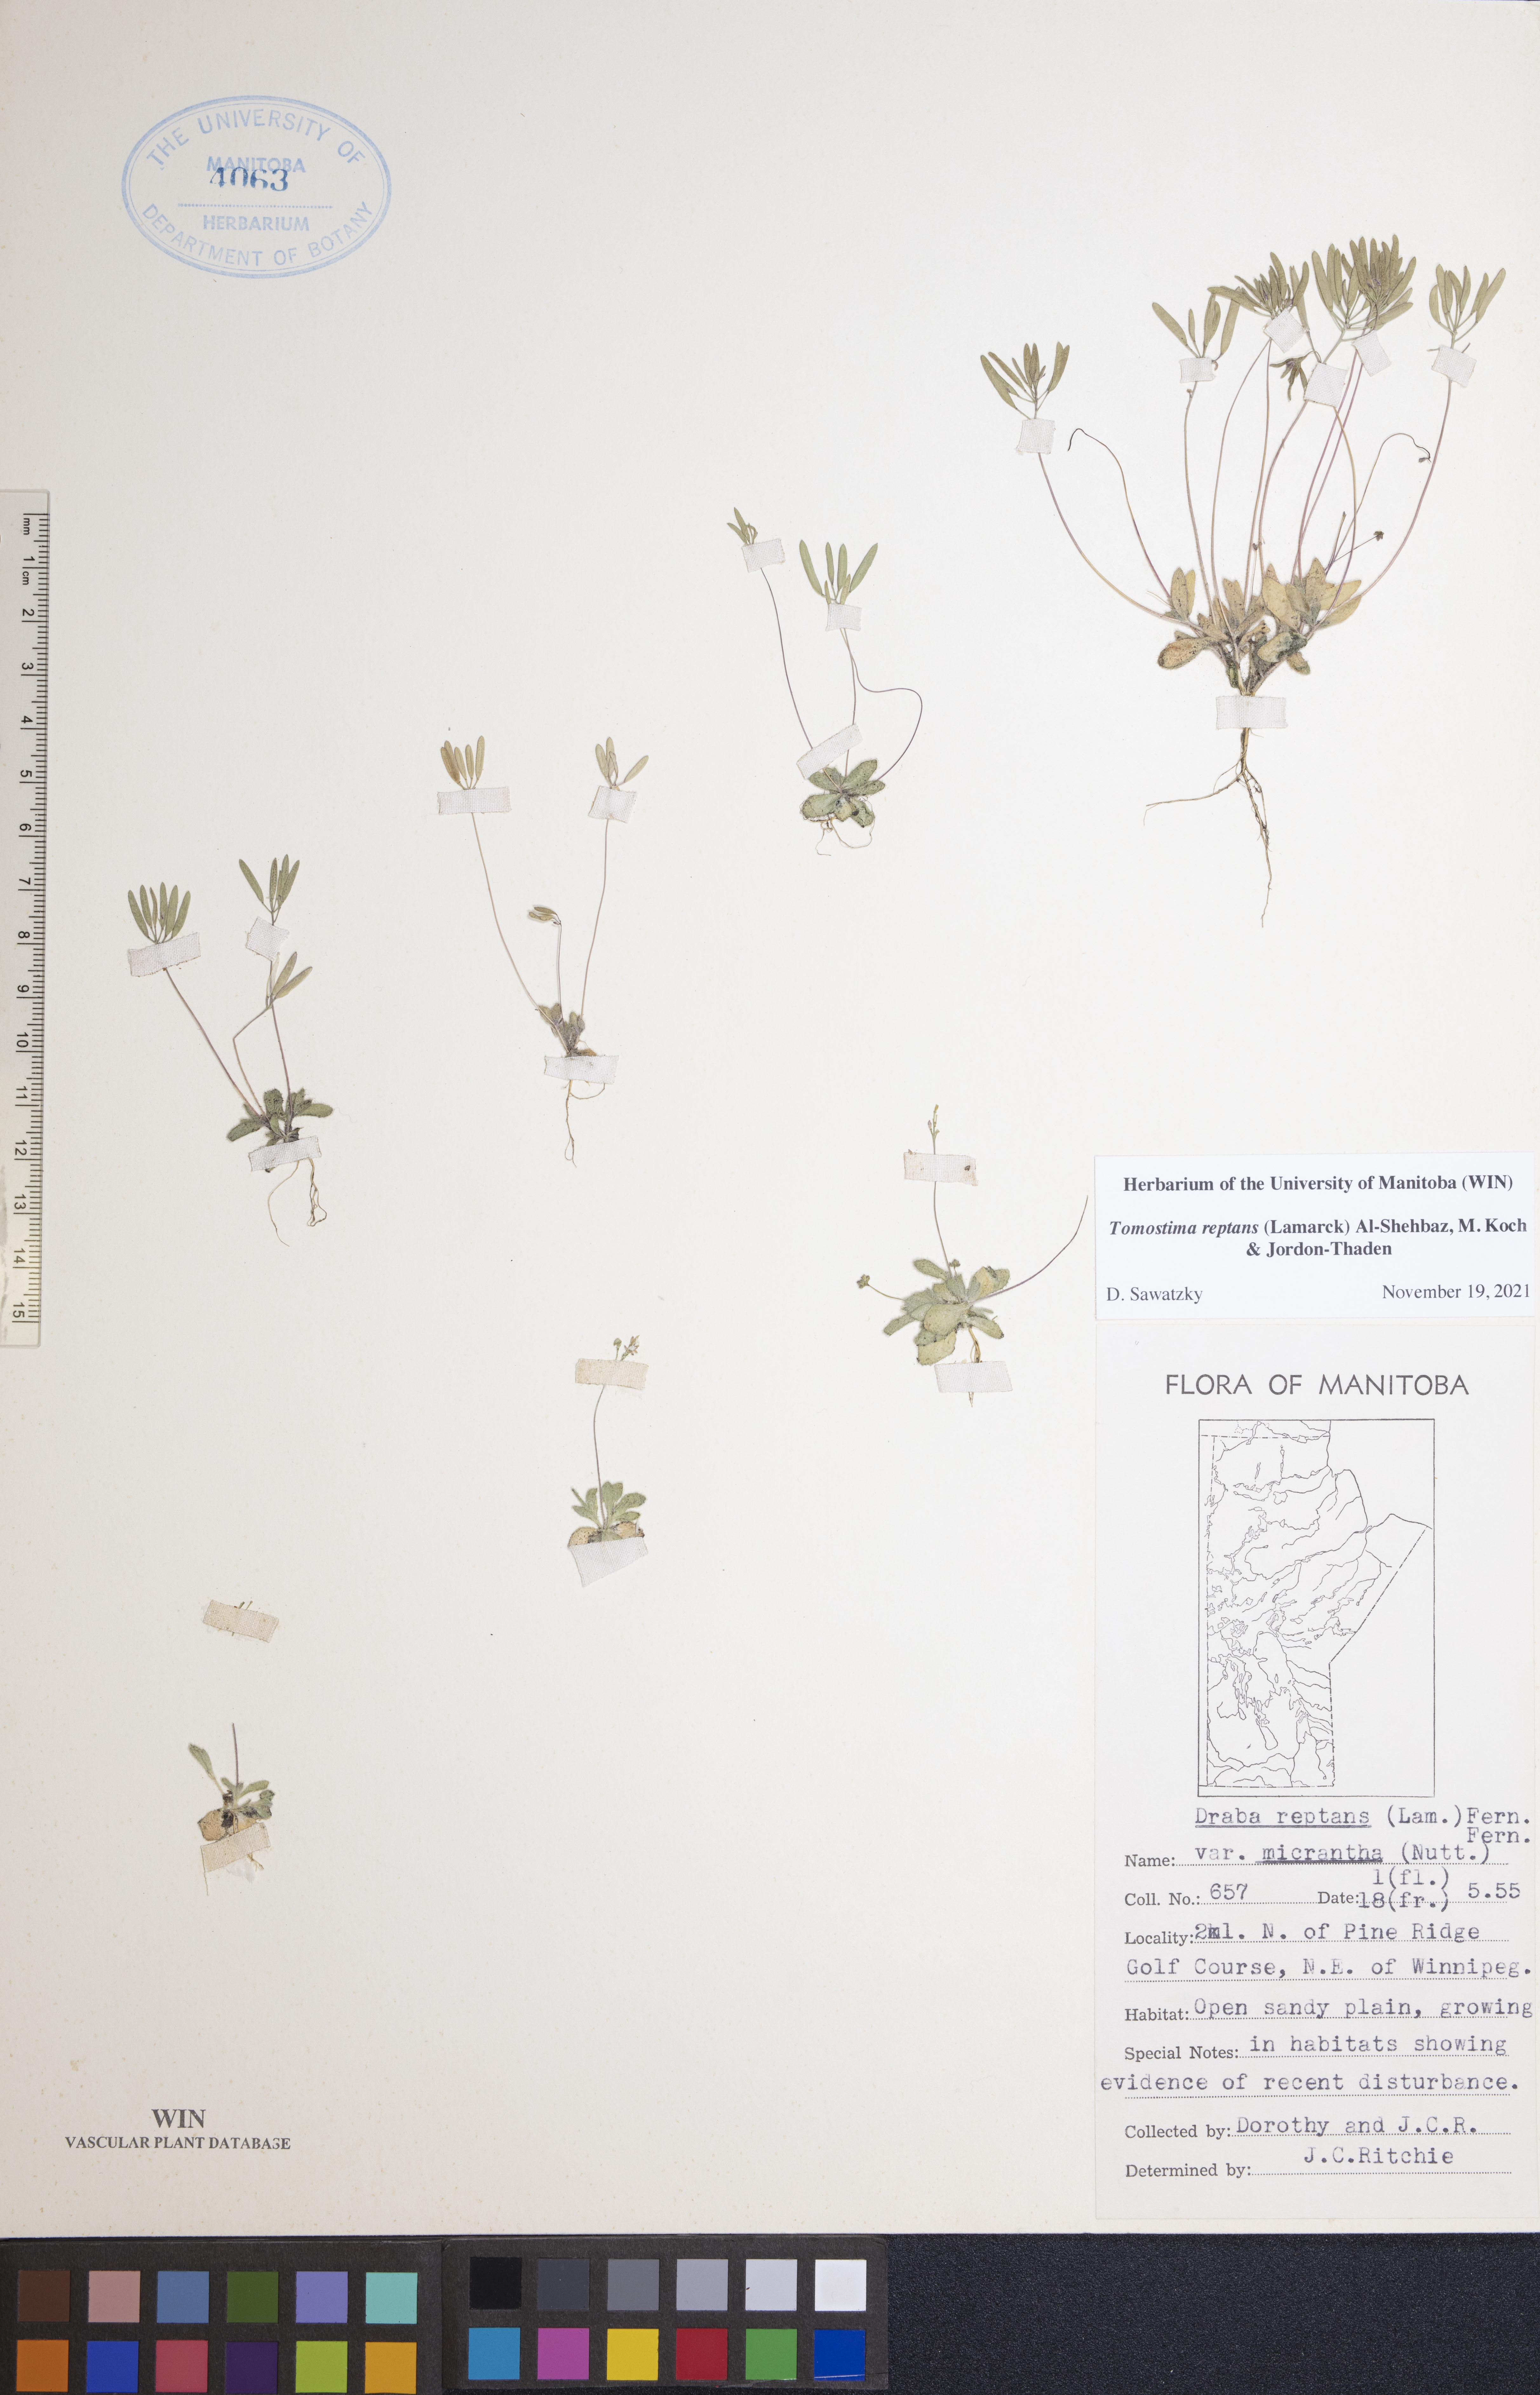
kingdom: Plantae
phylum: Tracheophyta
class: Magnoliopsida
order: Brassicales
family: Brassicaceae
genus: Tomostima
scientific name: Tomostima reptans
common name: Carolina draba
